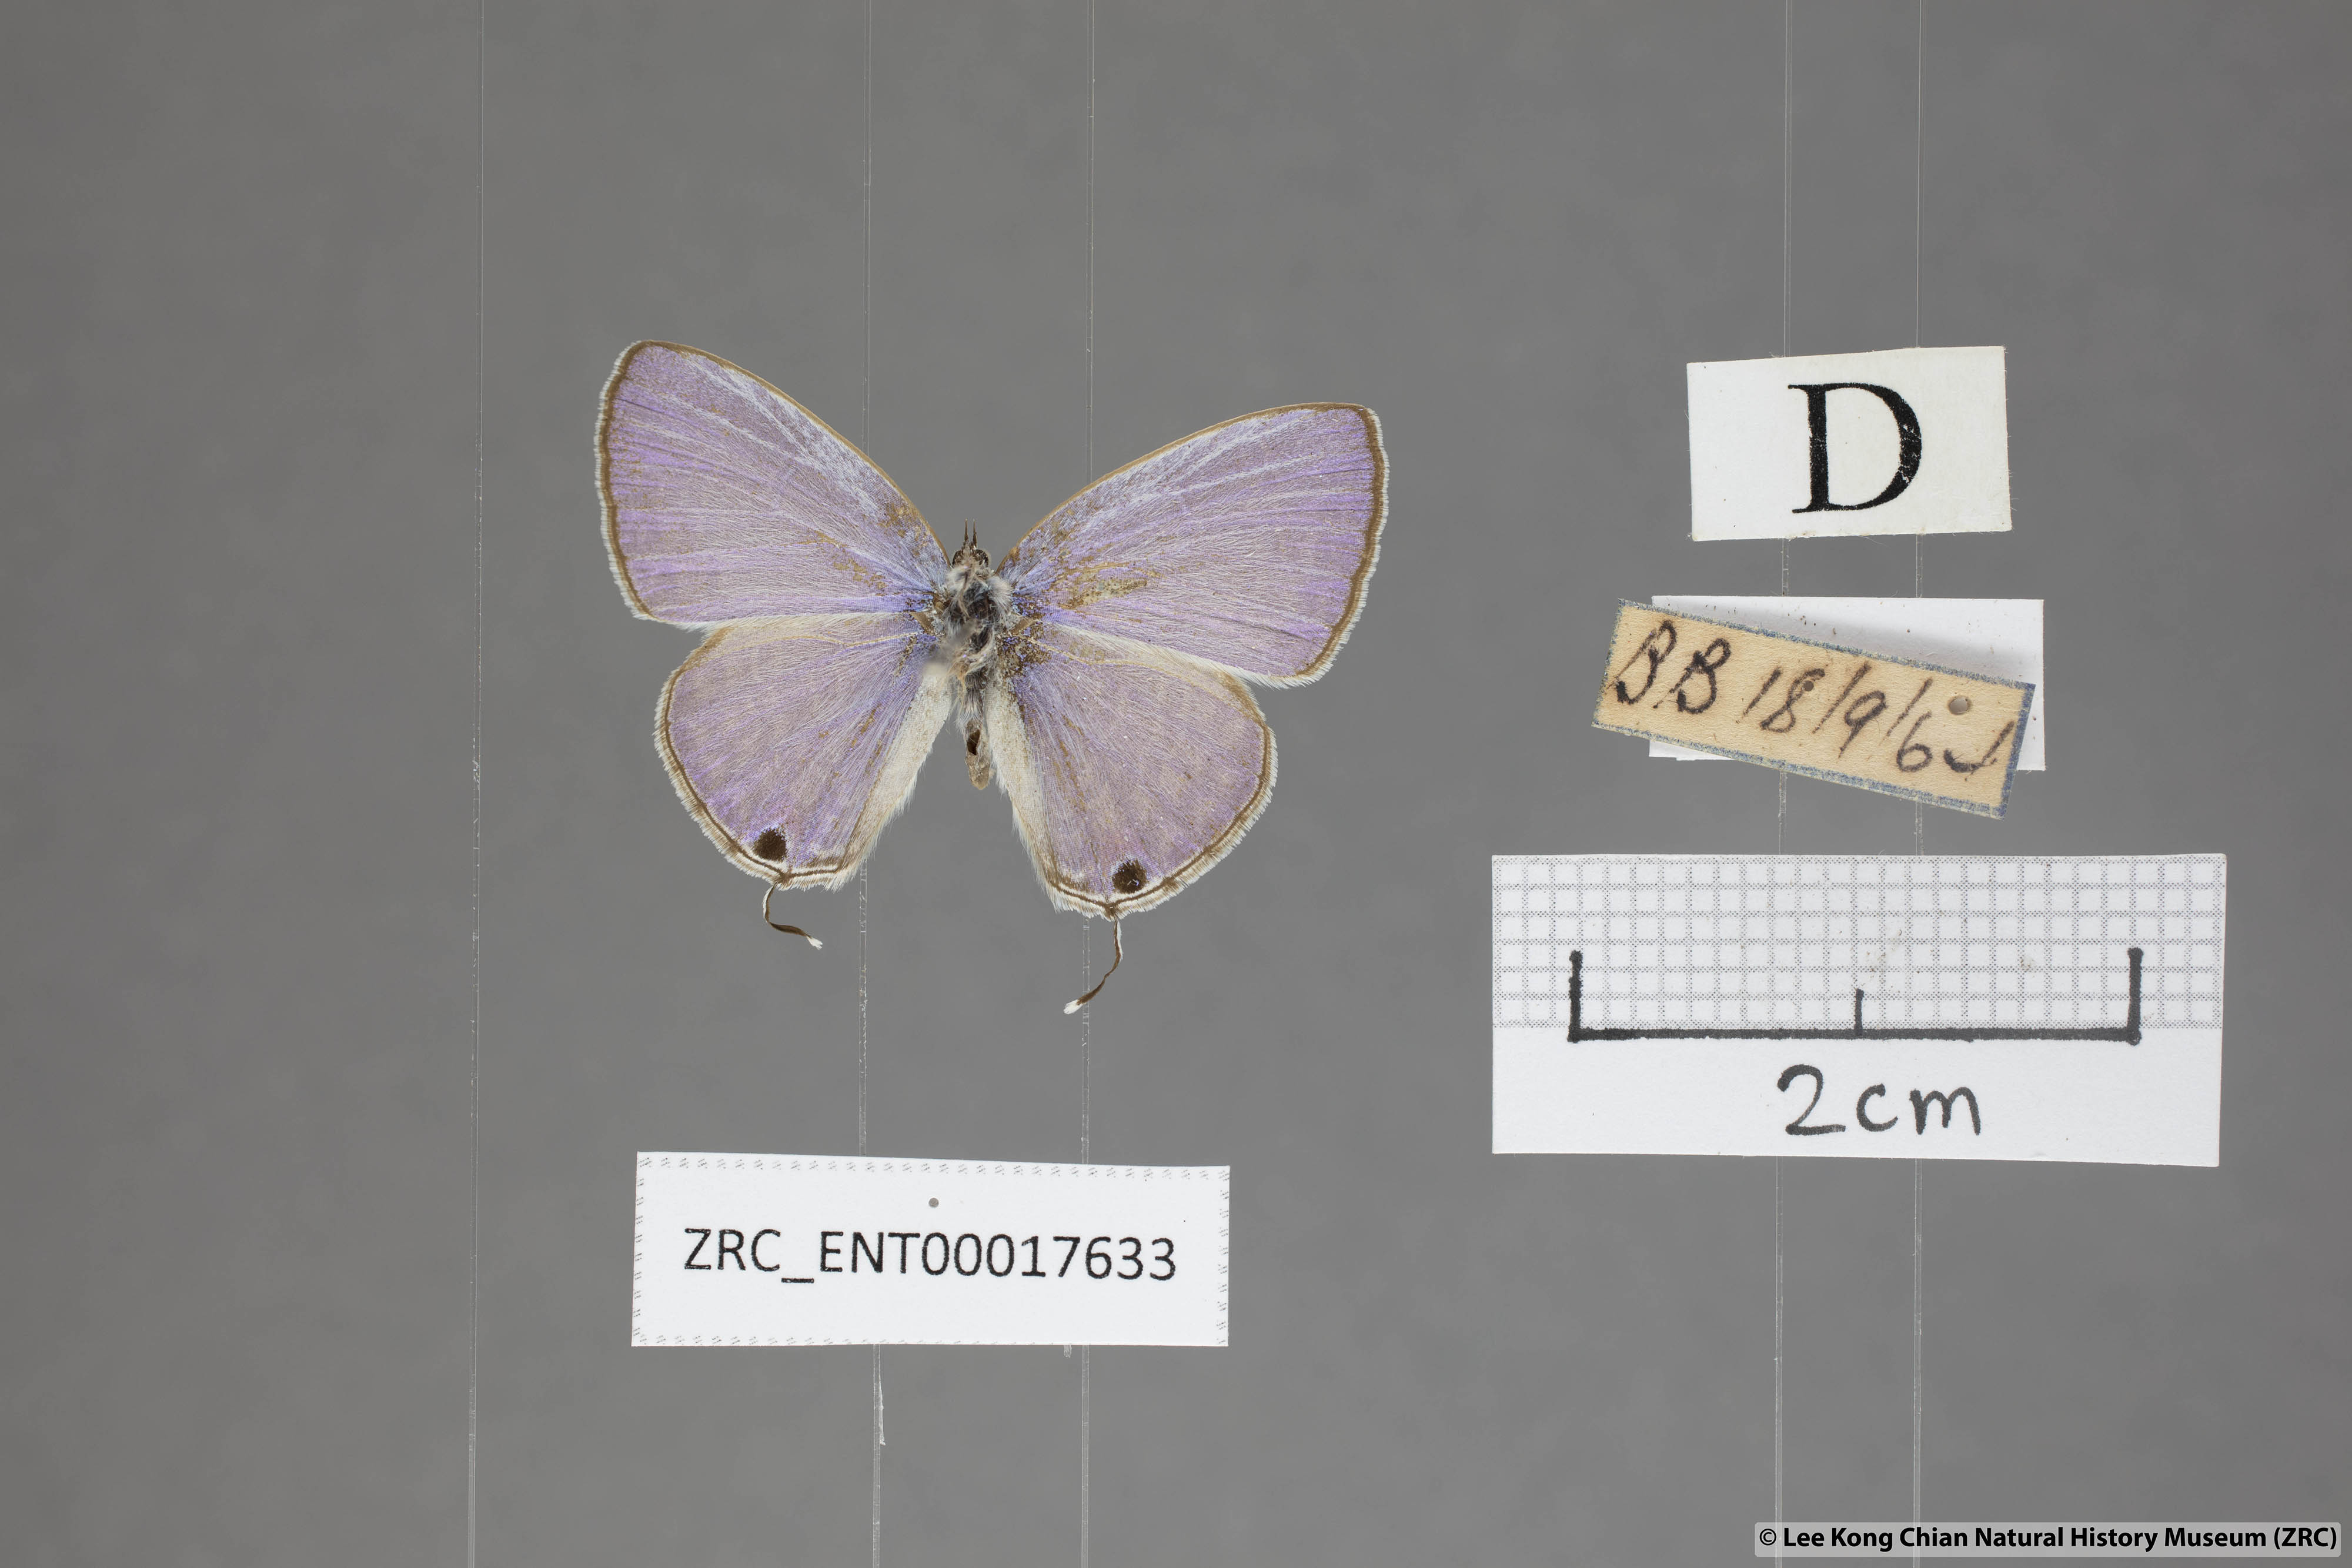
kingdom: Animalia
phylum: Arthropoda
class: Insecta
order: Lepidoptera
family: Lycaenidae
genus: Catochrysops
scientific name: Catochrysops strabo
